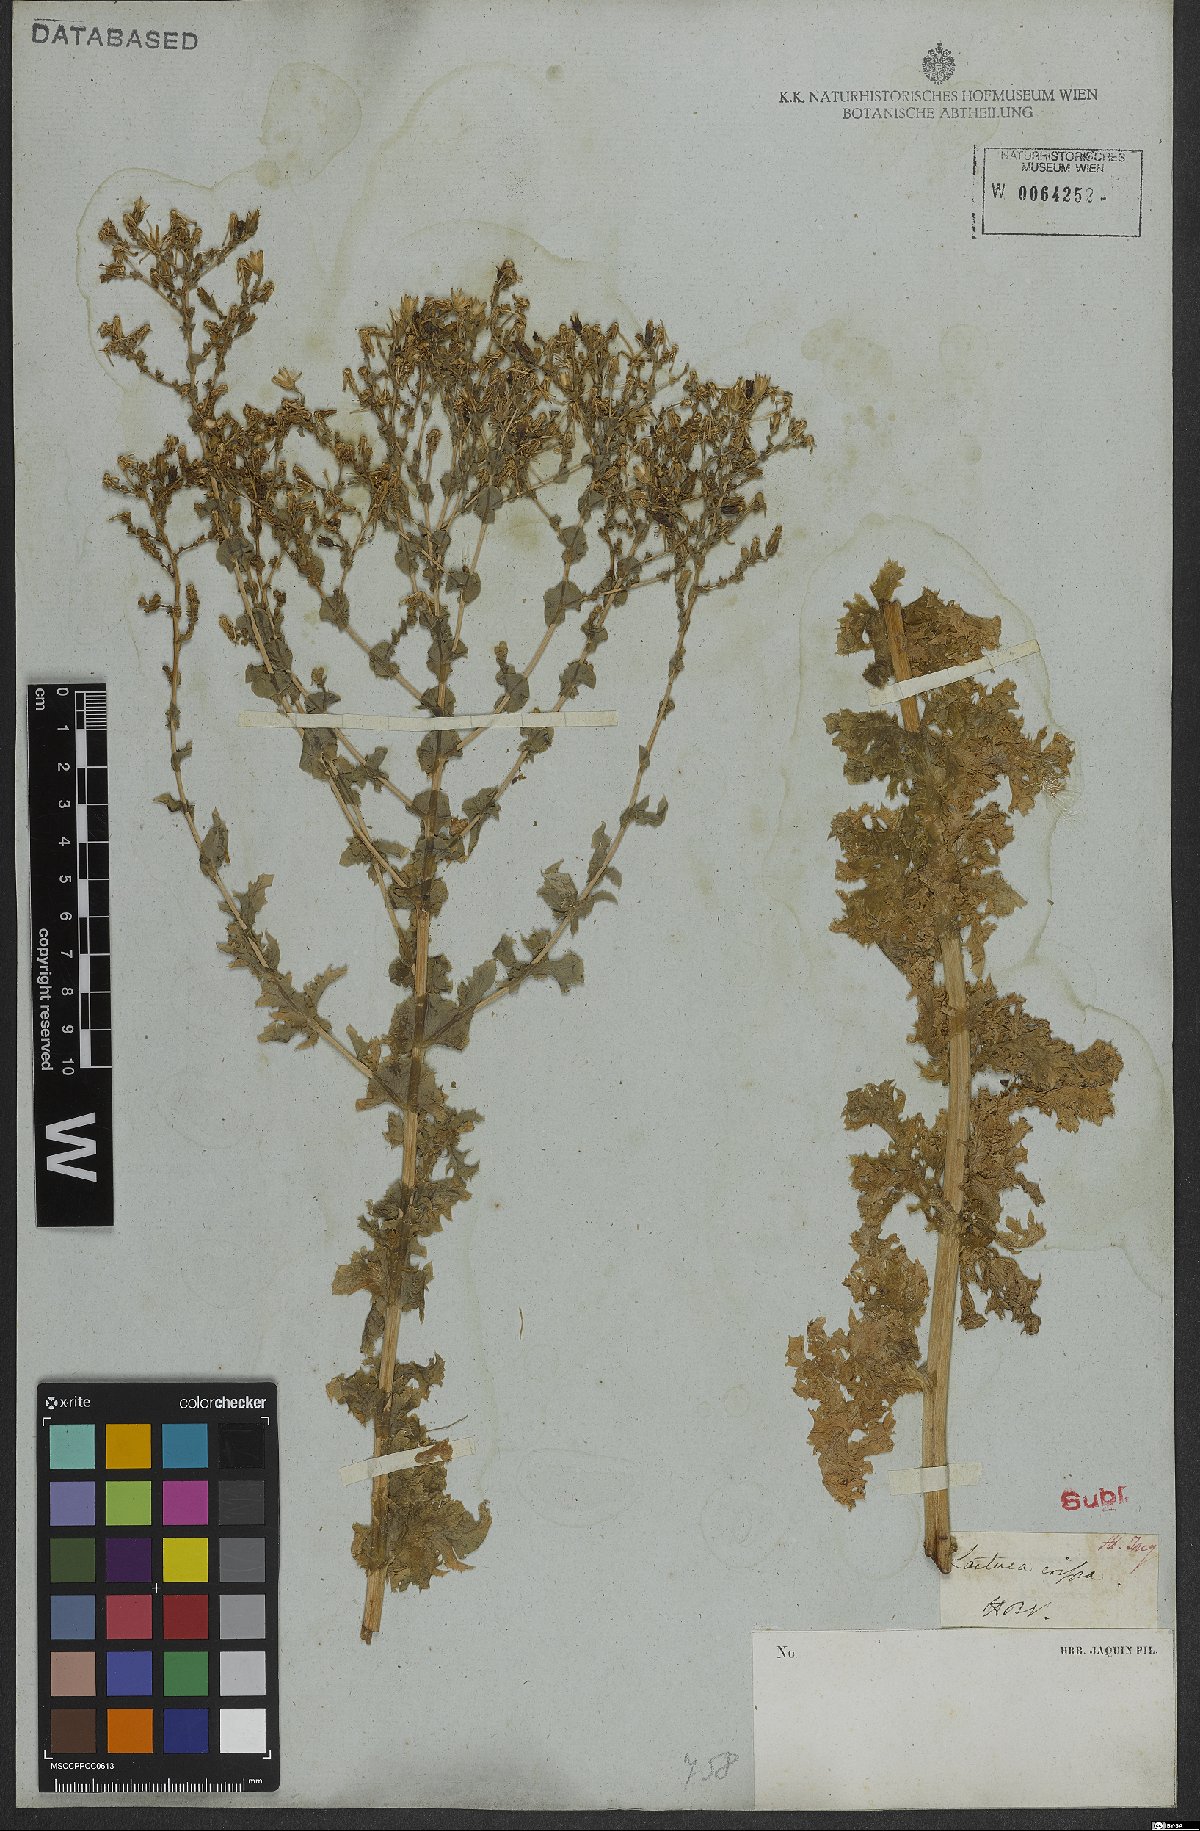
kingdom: Plantae
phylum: Tracheophyta
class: Magnoliopsida
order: Asterales
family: Asteraceae
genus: Lactuca
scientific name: Lactuca sativa
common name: Garden lettuce
